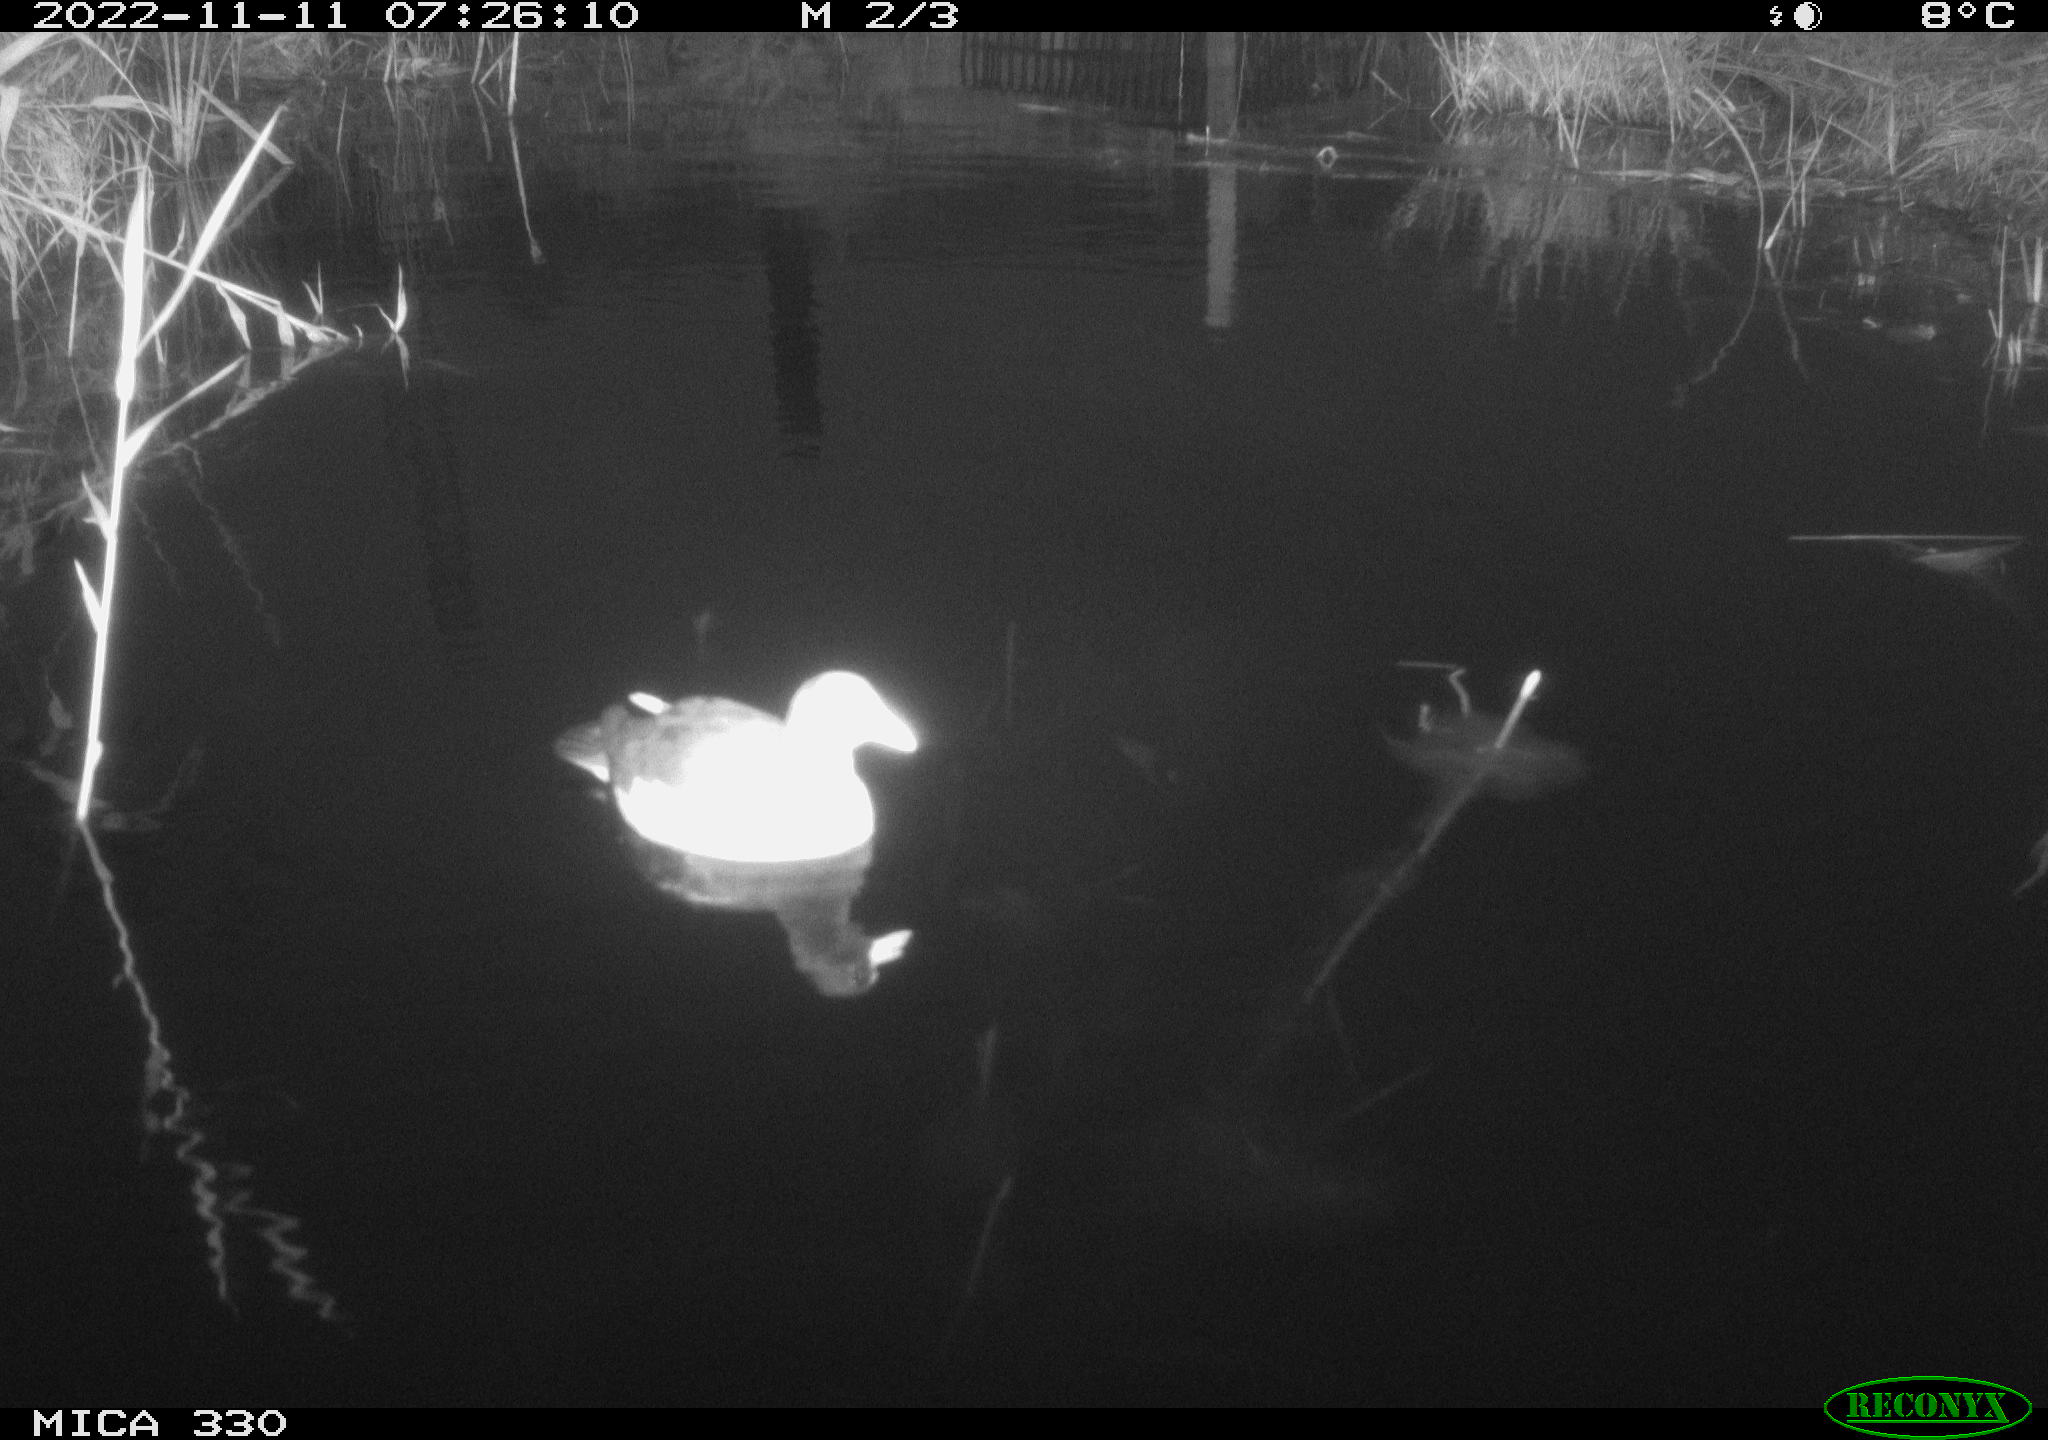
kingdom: Animalia
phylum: Chordata
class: Aves
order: Gruiformes
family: Rallidae
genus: Gallinula
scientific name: Gallinula chloropus
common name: Common moorhen
